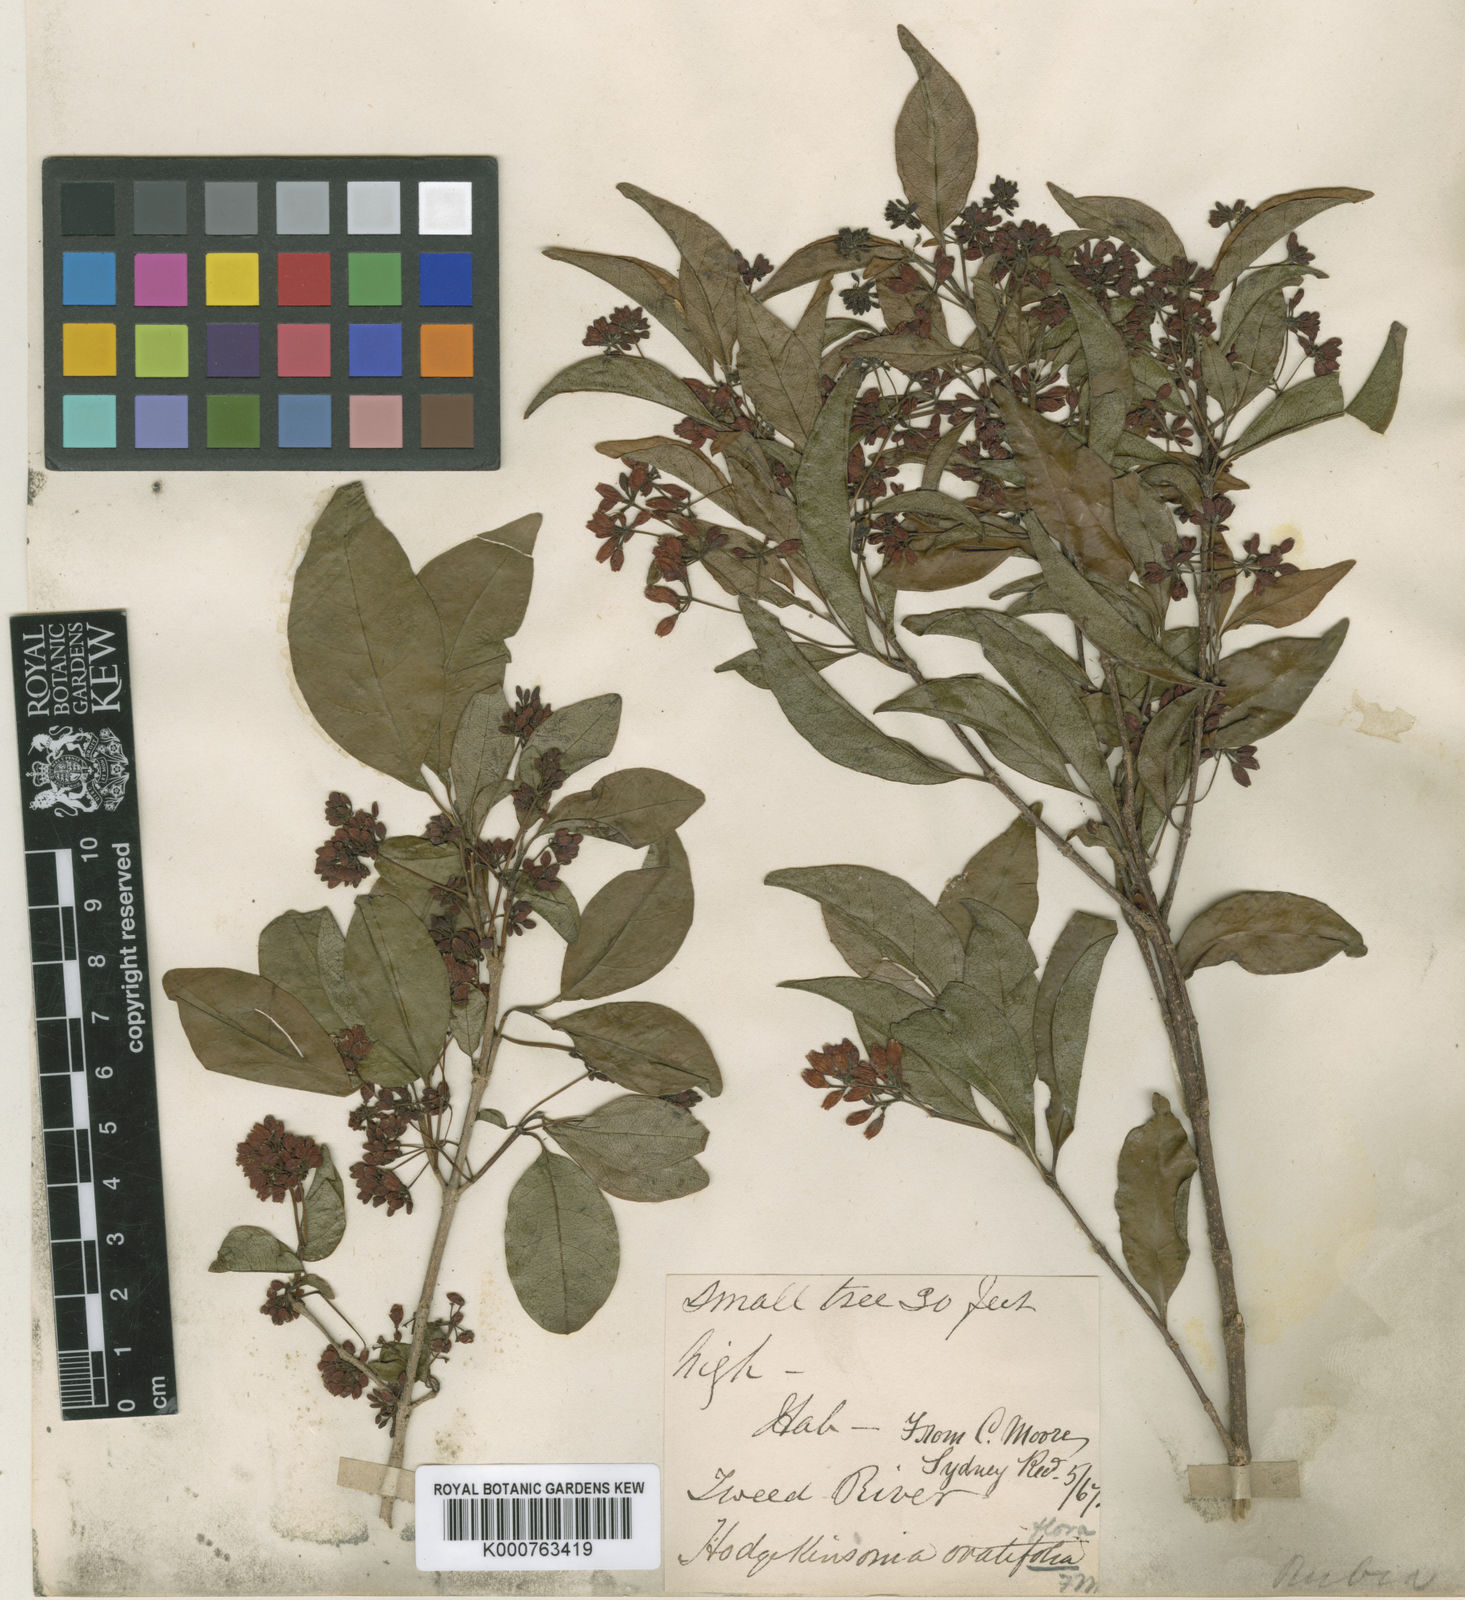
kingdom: Plantae
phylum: Tracheophyta
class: Magnoliopsida
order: Gentianales
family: Rubiaceae
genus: Hodgkinsonia
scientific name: Hodgkinsonia ovatiflora
